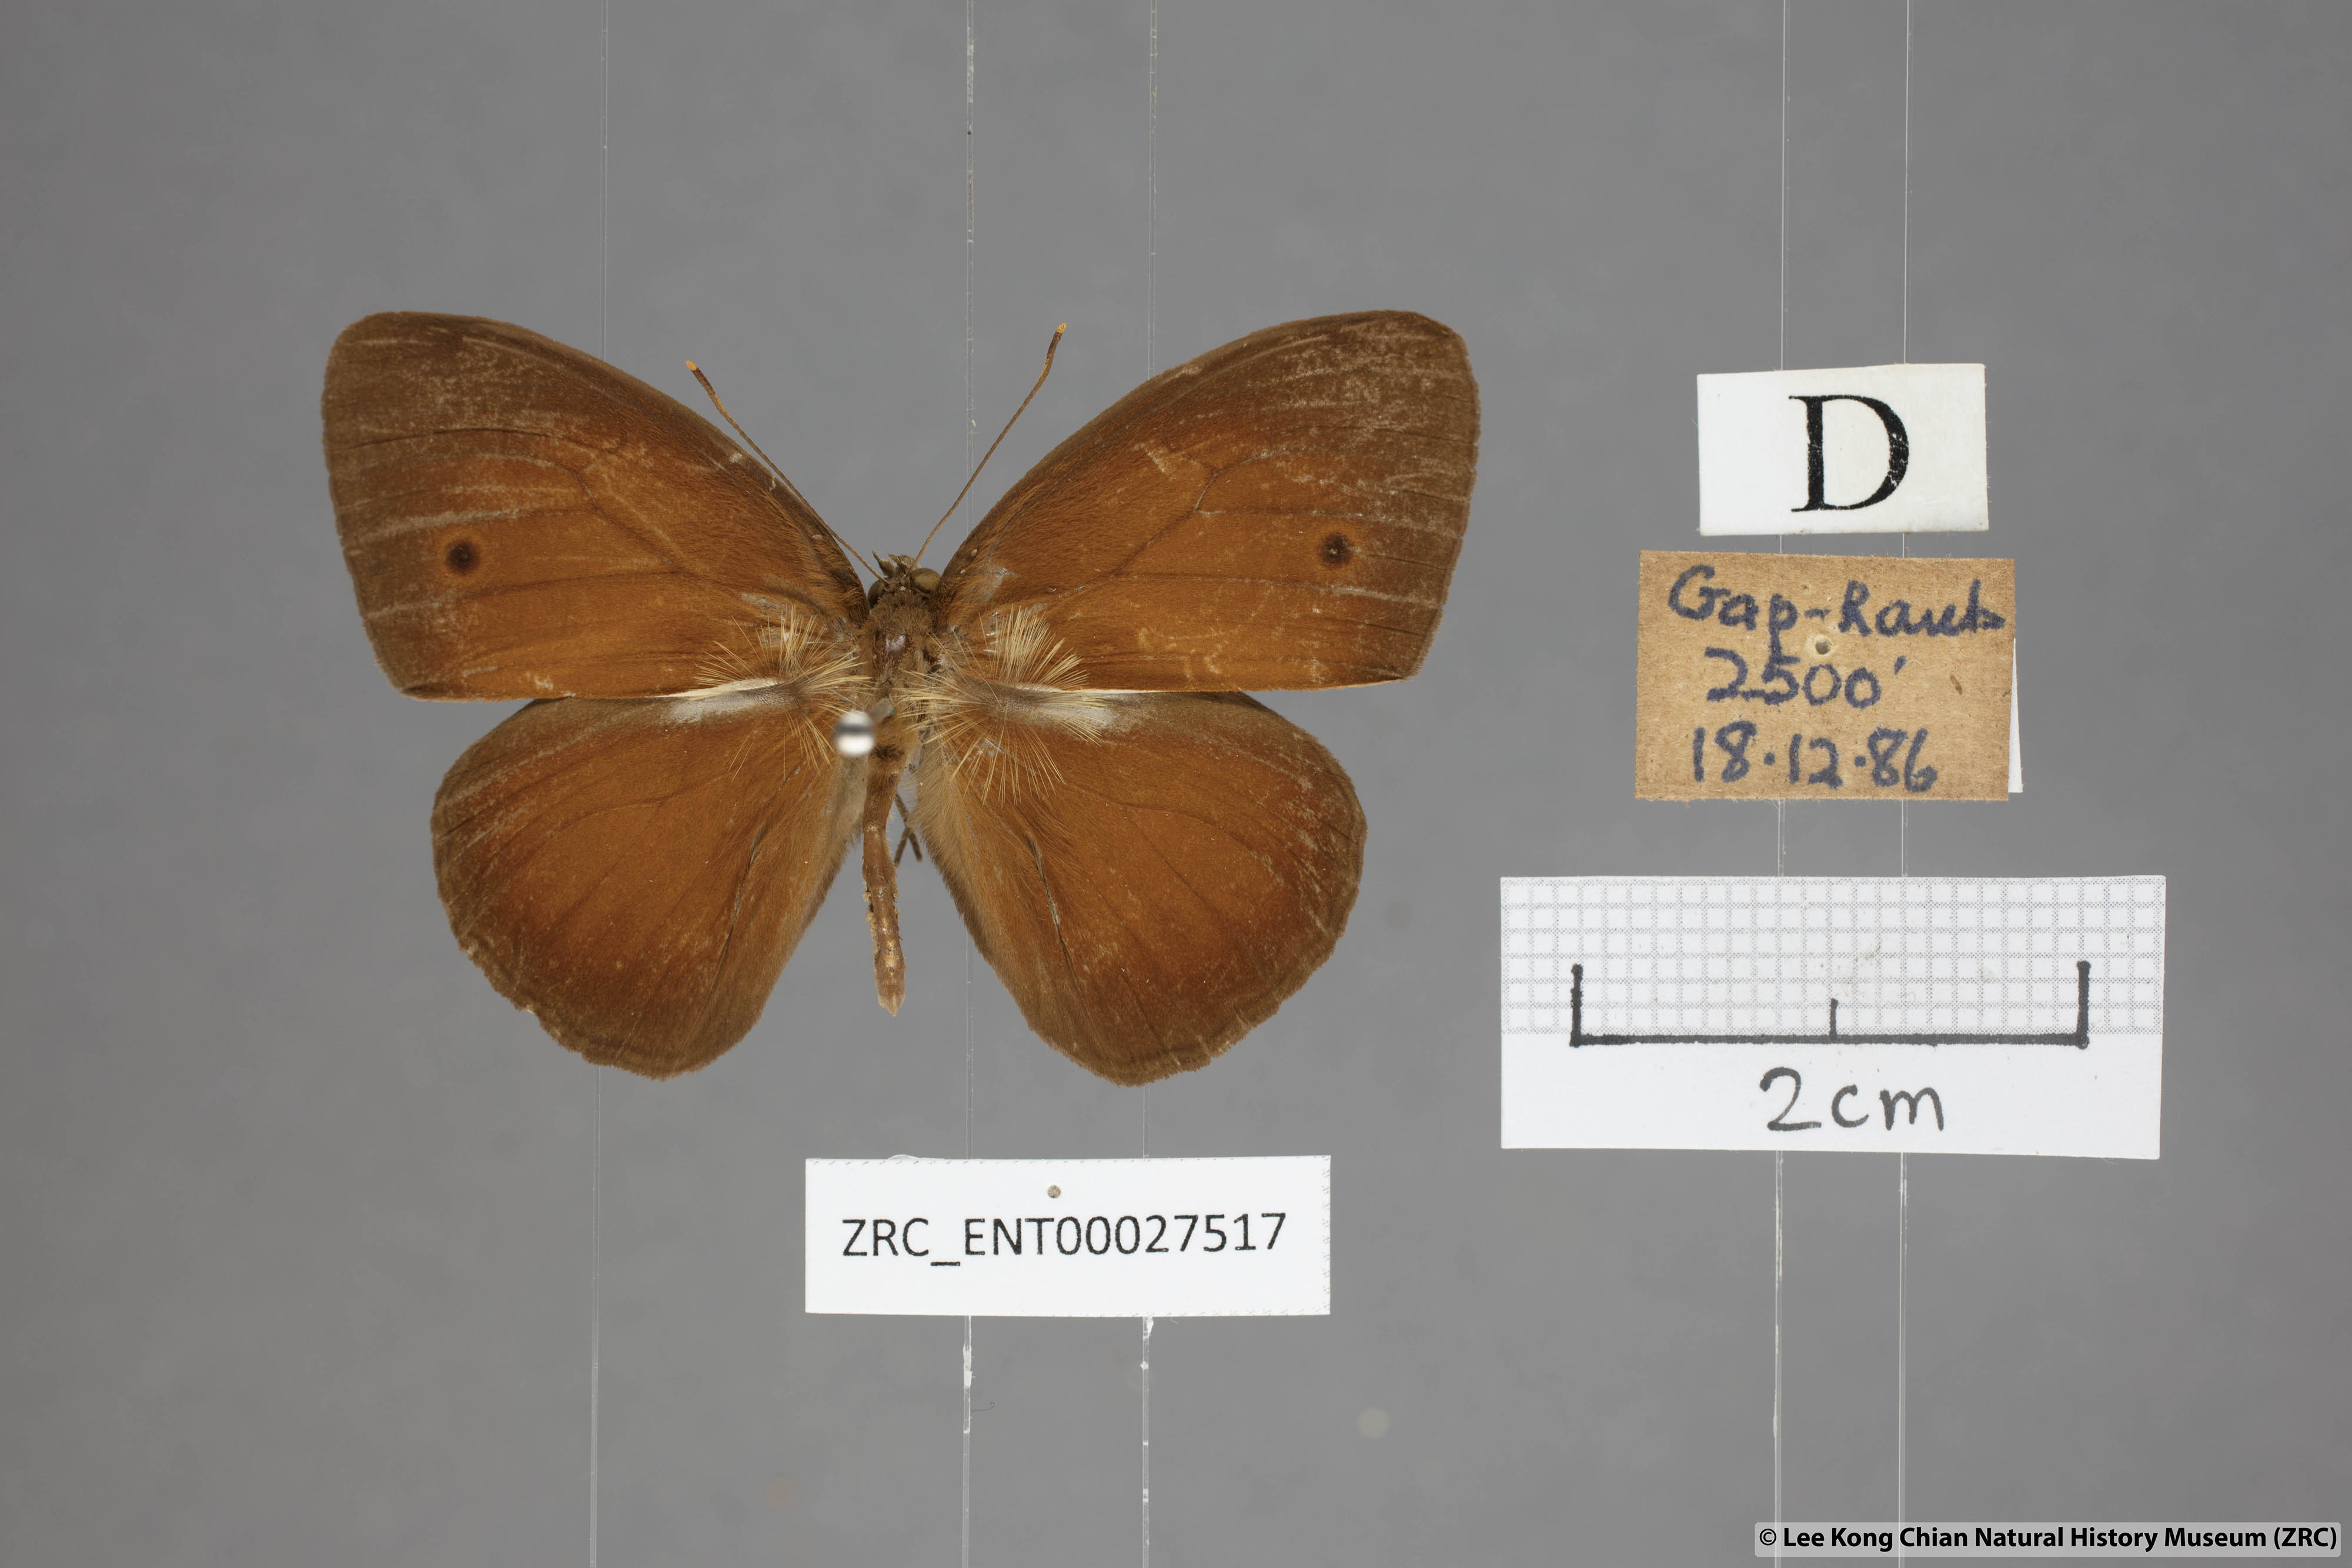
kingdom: Animalia
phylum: Arthropoda
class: Insecta
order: Lepidoptera
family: Nymphalidae
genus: Mycalesis
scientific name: Mycalesis oroatis
